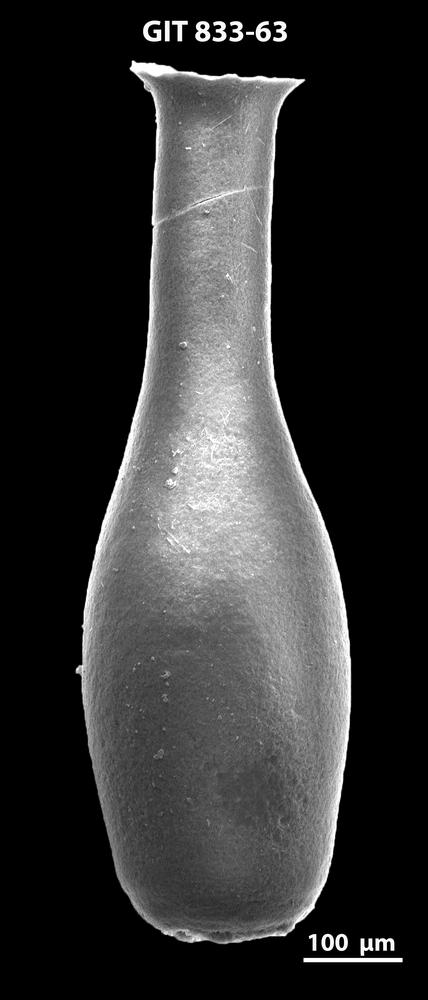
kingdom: Animalia
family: Lagenochitinidae
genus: Lagenochitina
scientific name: Lagenochitina megaesthonica
